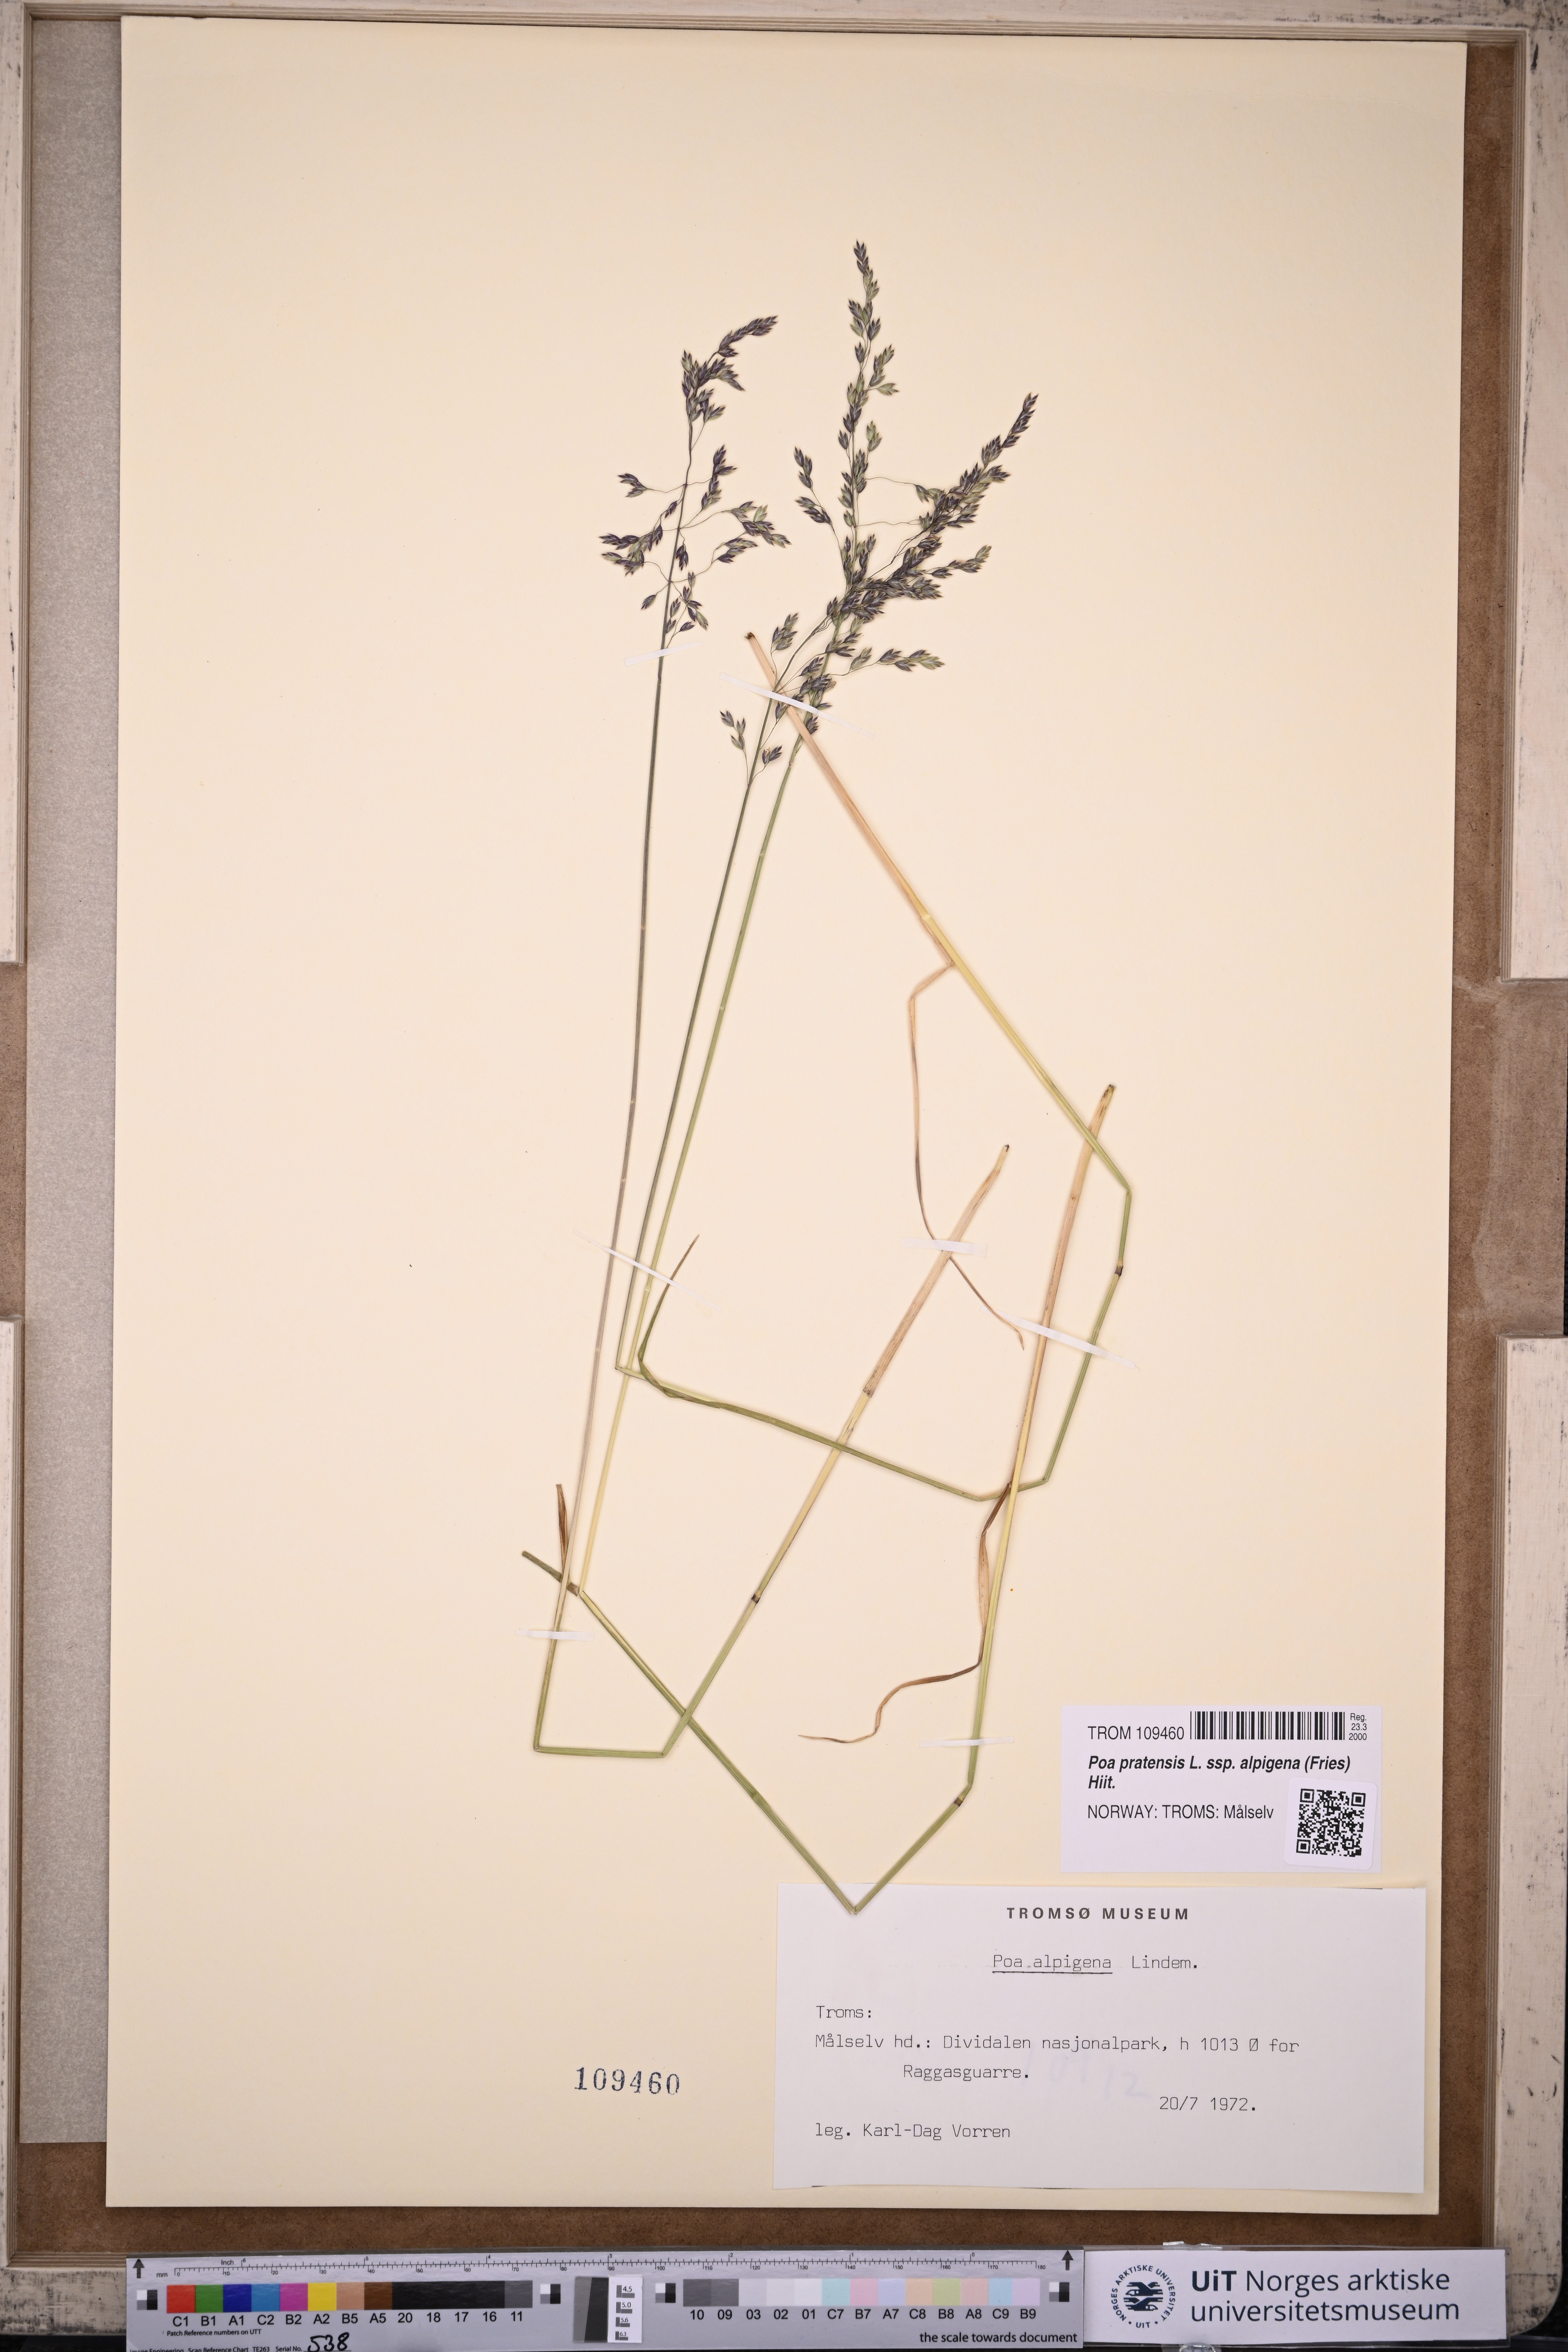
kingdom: Plantae
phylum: Tracheophyta
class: Liliopsida
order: Poales
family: Poaceae
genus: Poa
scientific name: Poa alpigena
